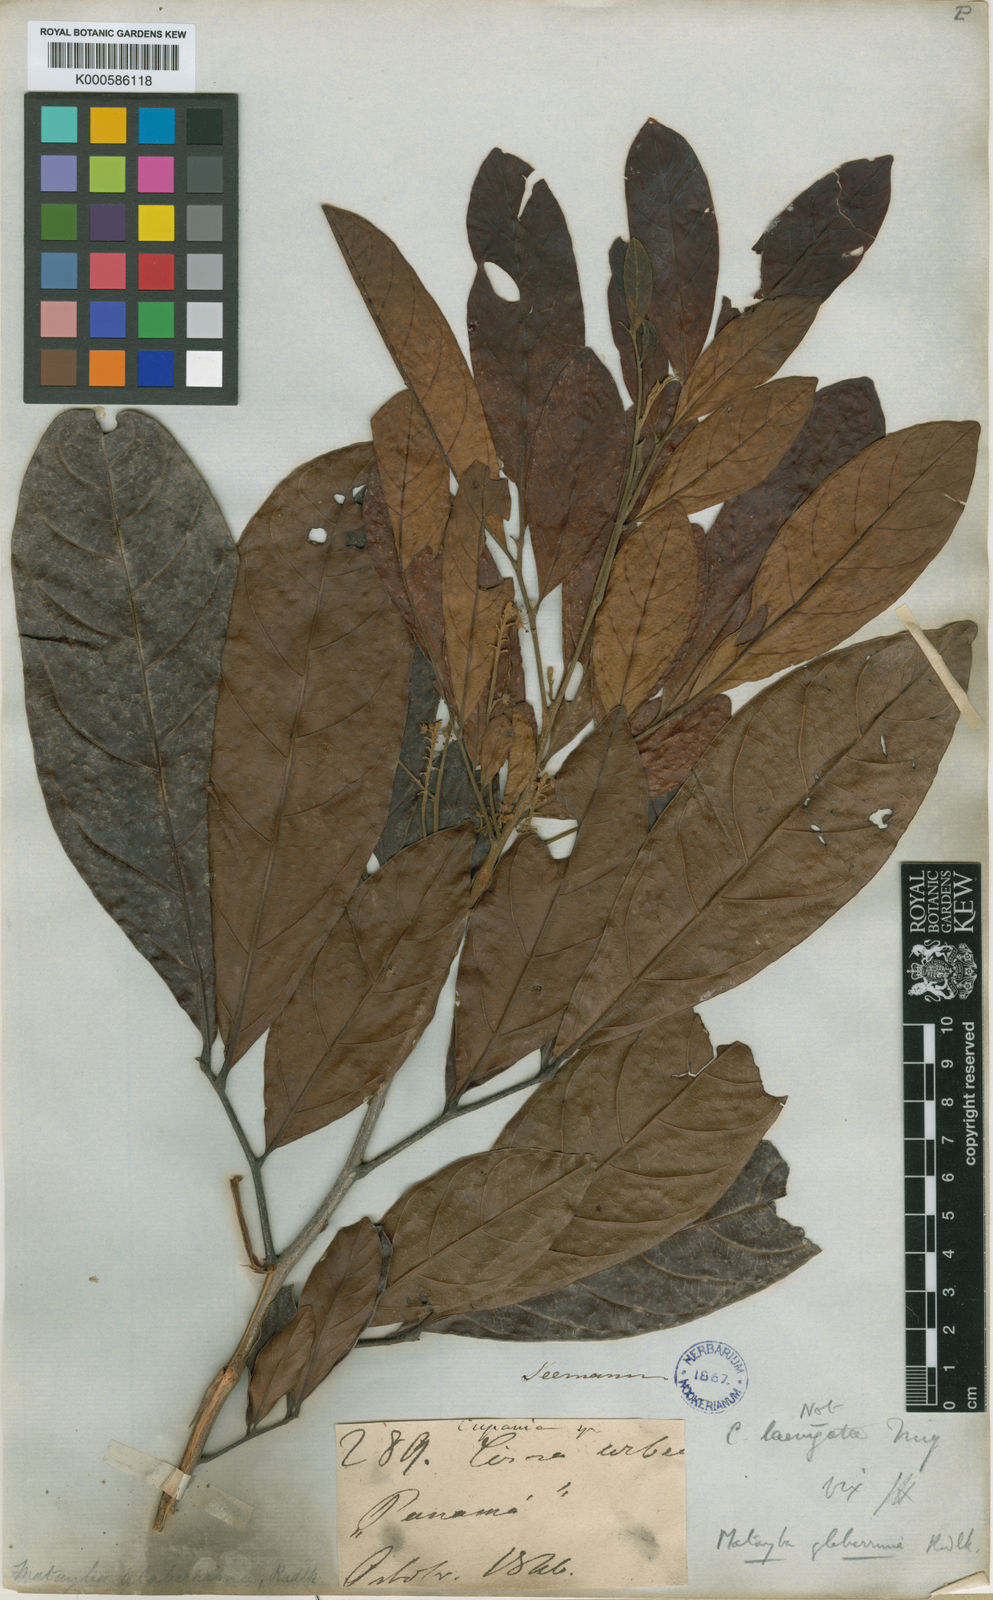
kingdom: Plantae
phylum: Tracheophyta
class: Magnoliopsida
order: Sapindales
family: Sapindaceae
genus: Matayba
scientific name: Matayba glaberrima
